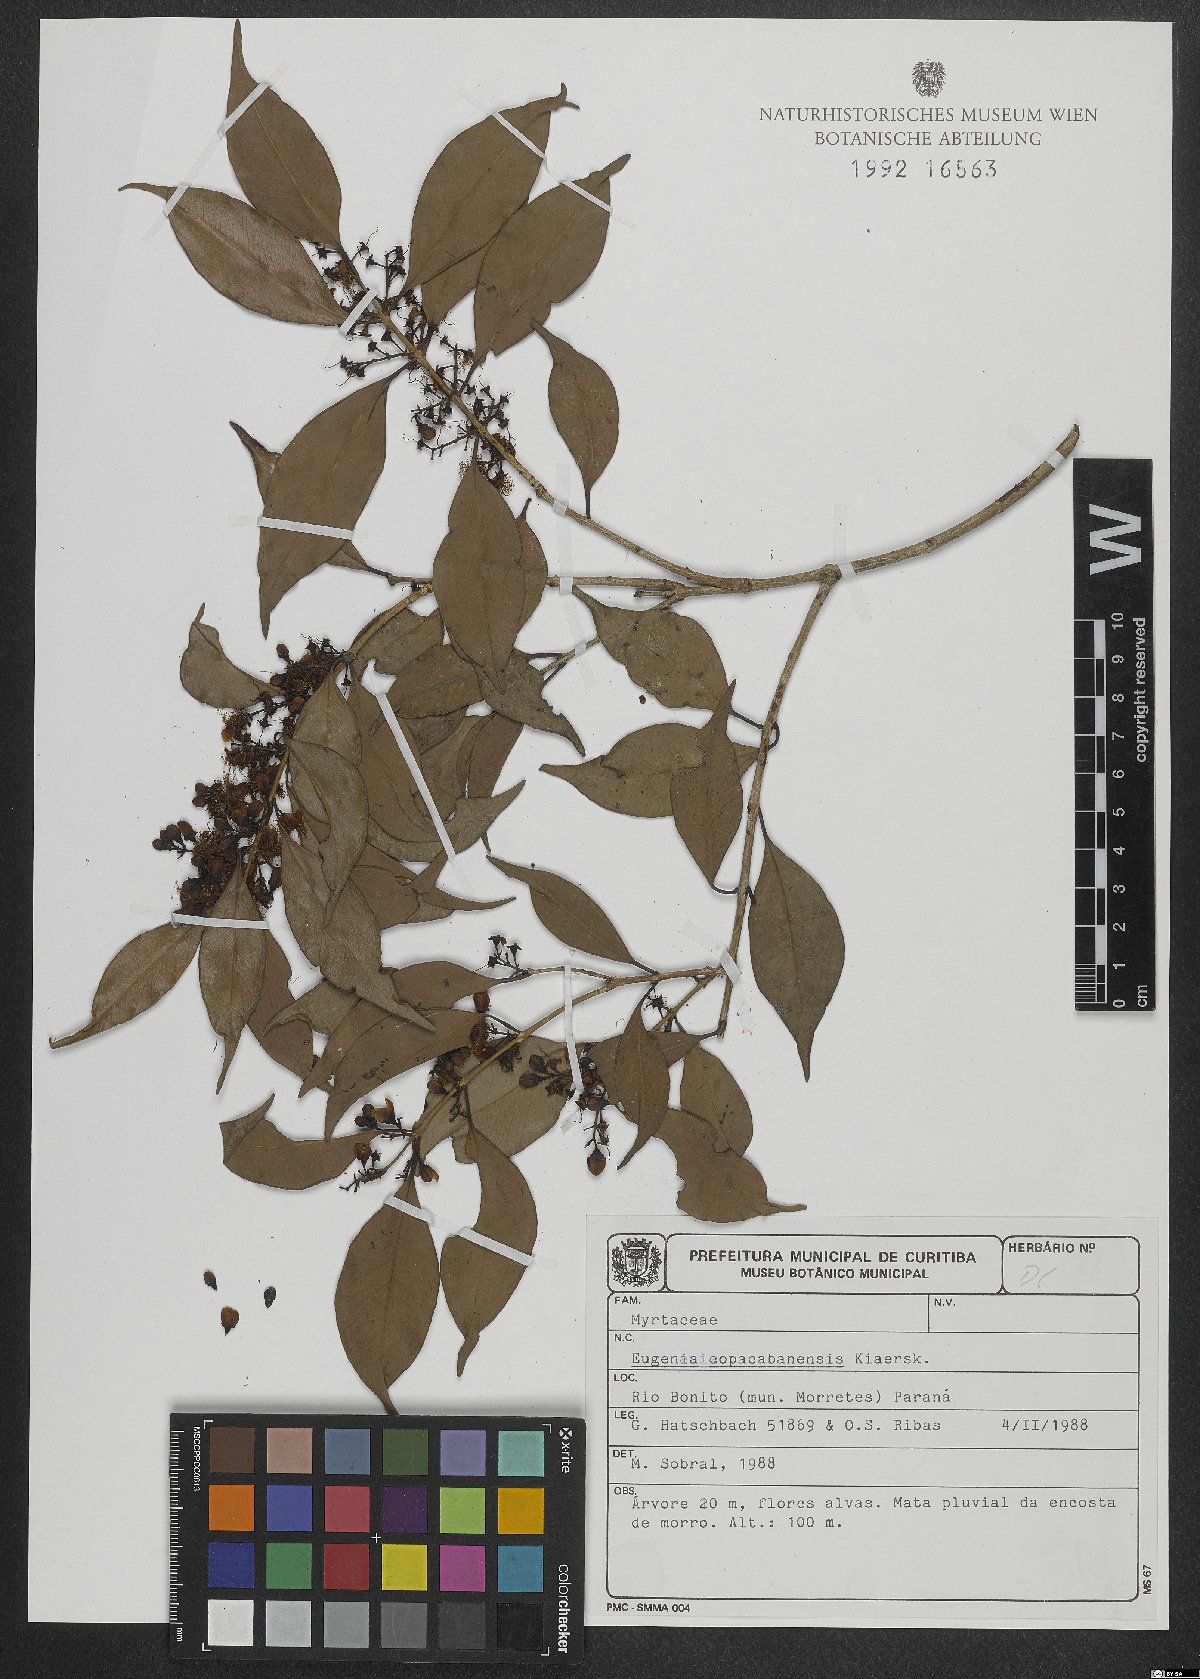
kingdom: Plantae
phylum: Tracheophyta
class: Magnoliopsida
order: Myrtales
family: Myrtaceae
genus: Eugenia
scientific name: Eugenia copacabanensis
